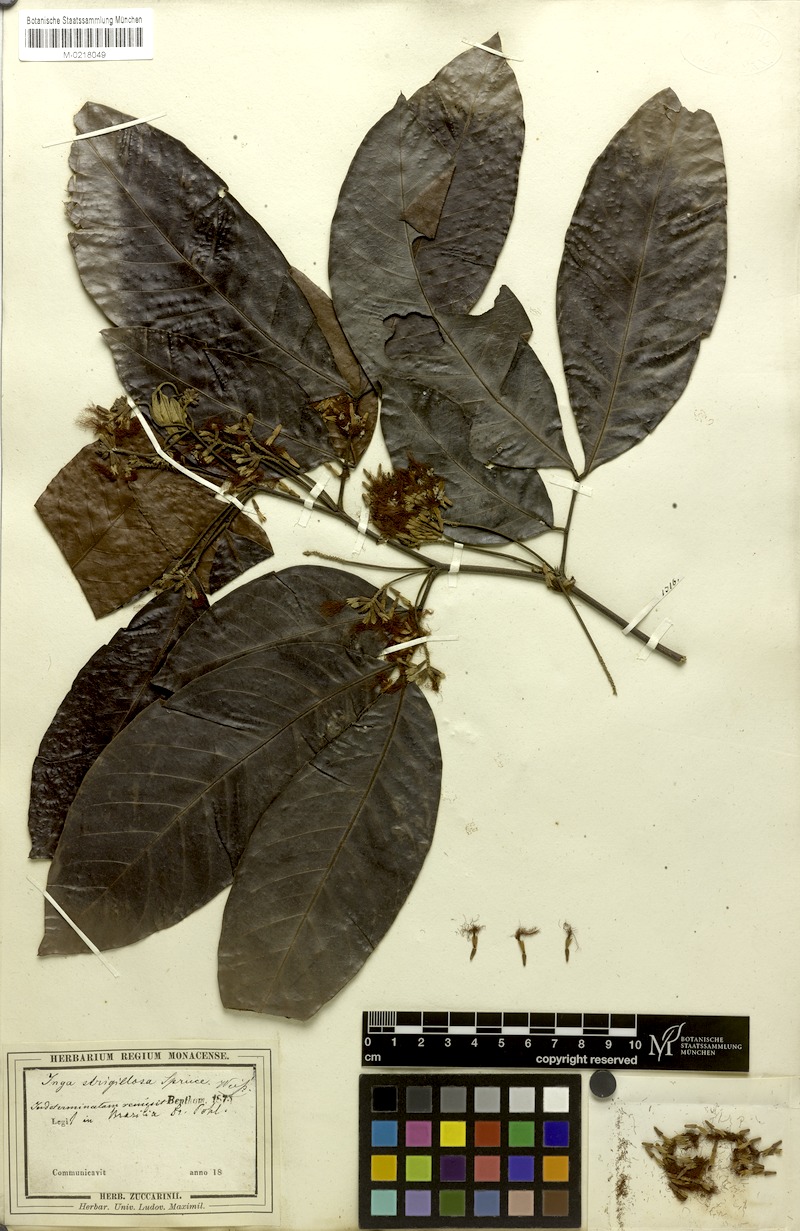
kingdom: Plantae
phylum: Tracheophyta
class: Magnoliopsida
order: Fabales
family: Fabaceae
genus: Inga
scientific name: Inga punctata
